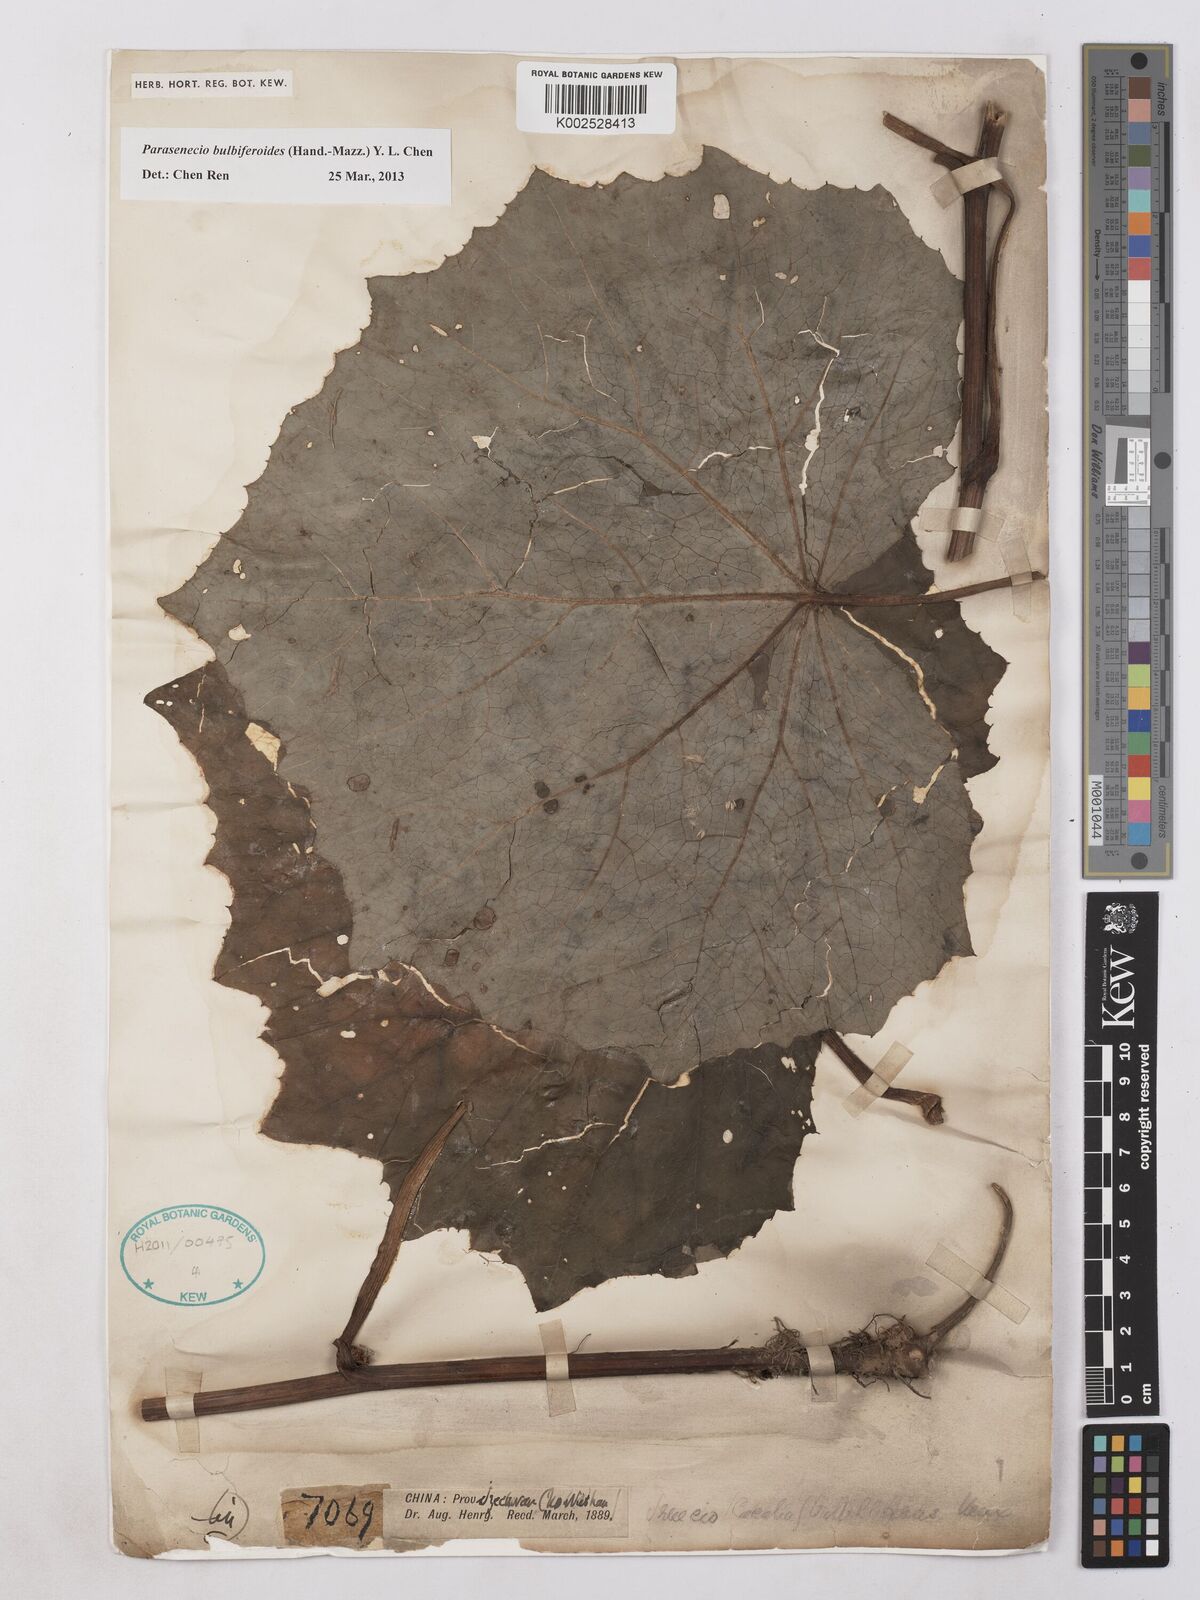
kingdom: Plantae
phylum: Tracheophyta
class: Magnoliopsida
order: Asterales
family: Asteraceae
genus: Parasenecio
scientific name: Parasenecio bulbiferoides
